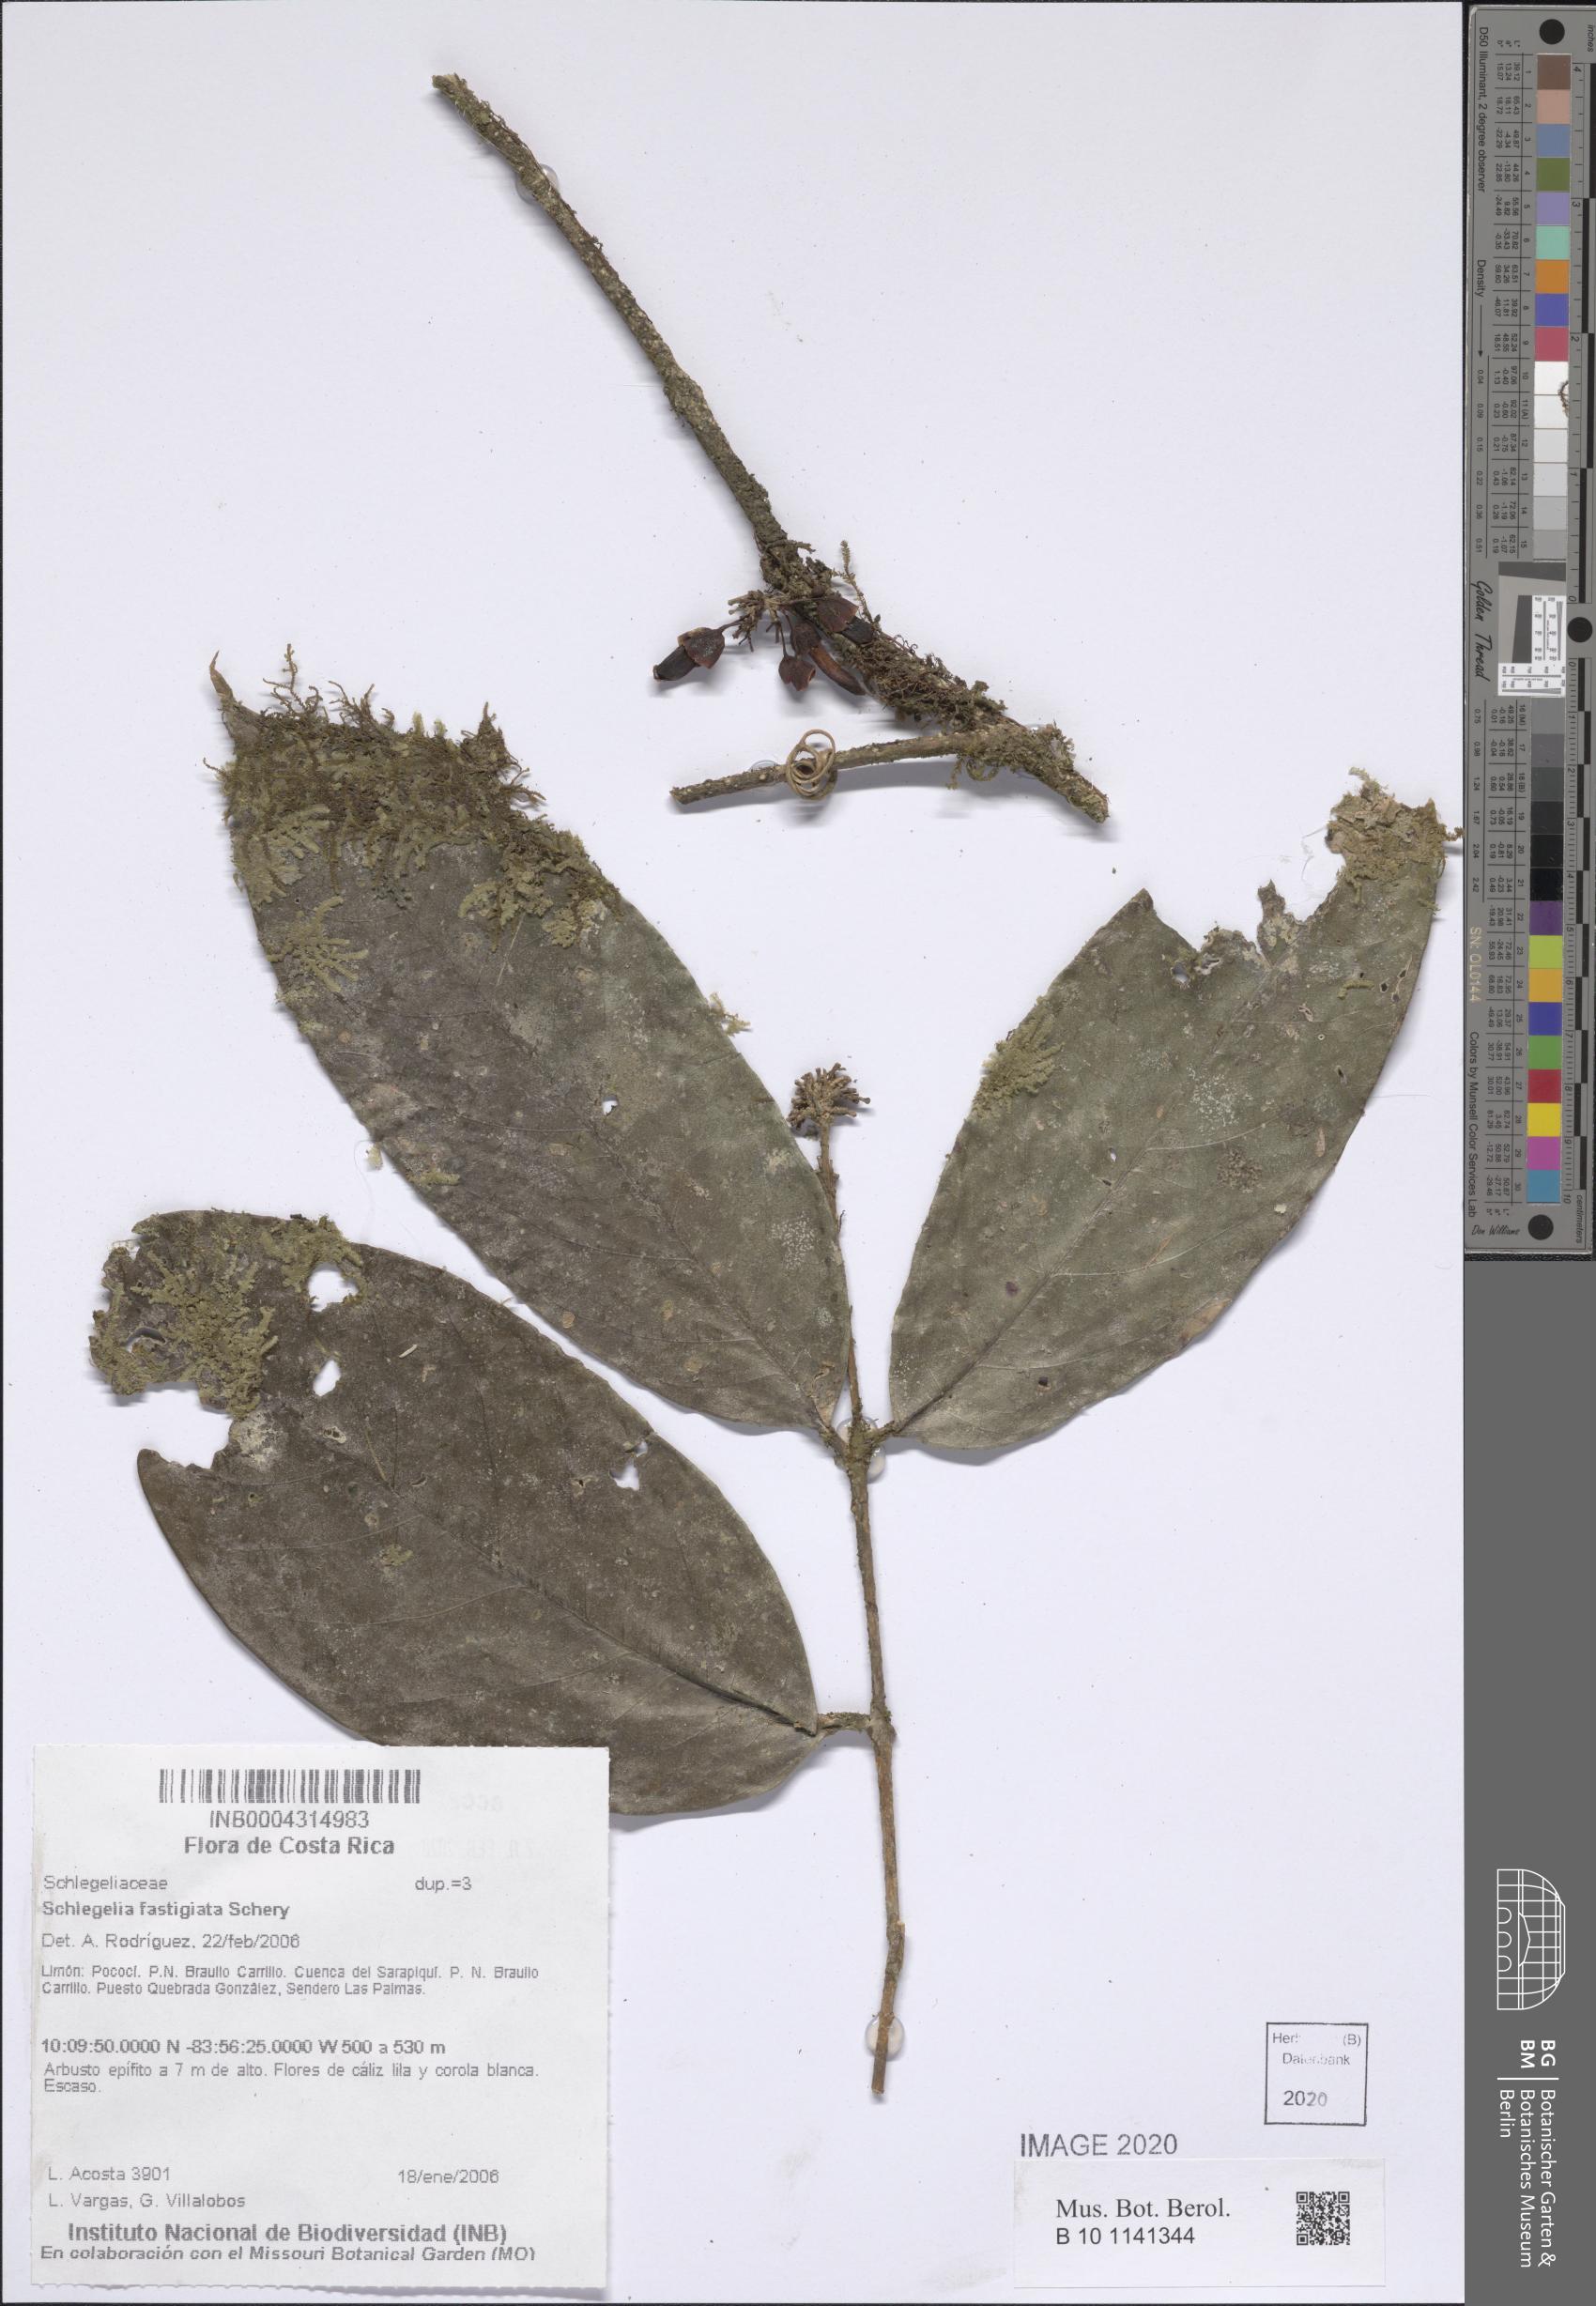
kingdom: Plantae
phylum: Tracheophyta
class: Magnoliopsida
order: Lamiales
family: Schlegeliaceae
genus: Schlegelia
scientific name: Schlegelia fastigiata
